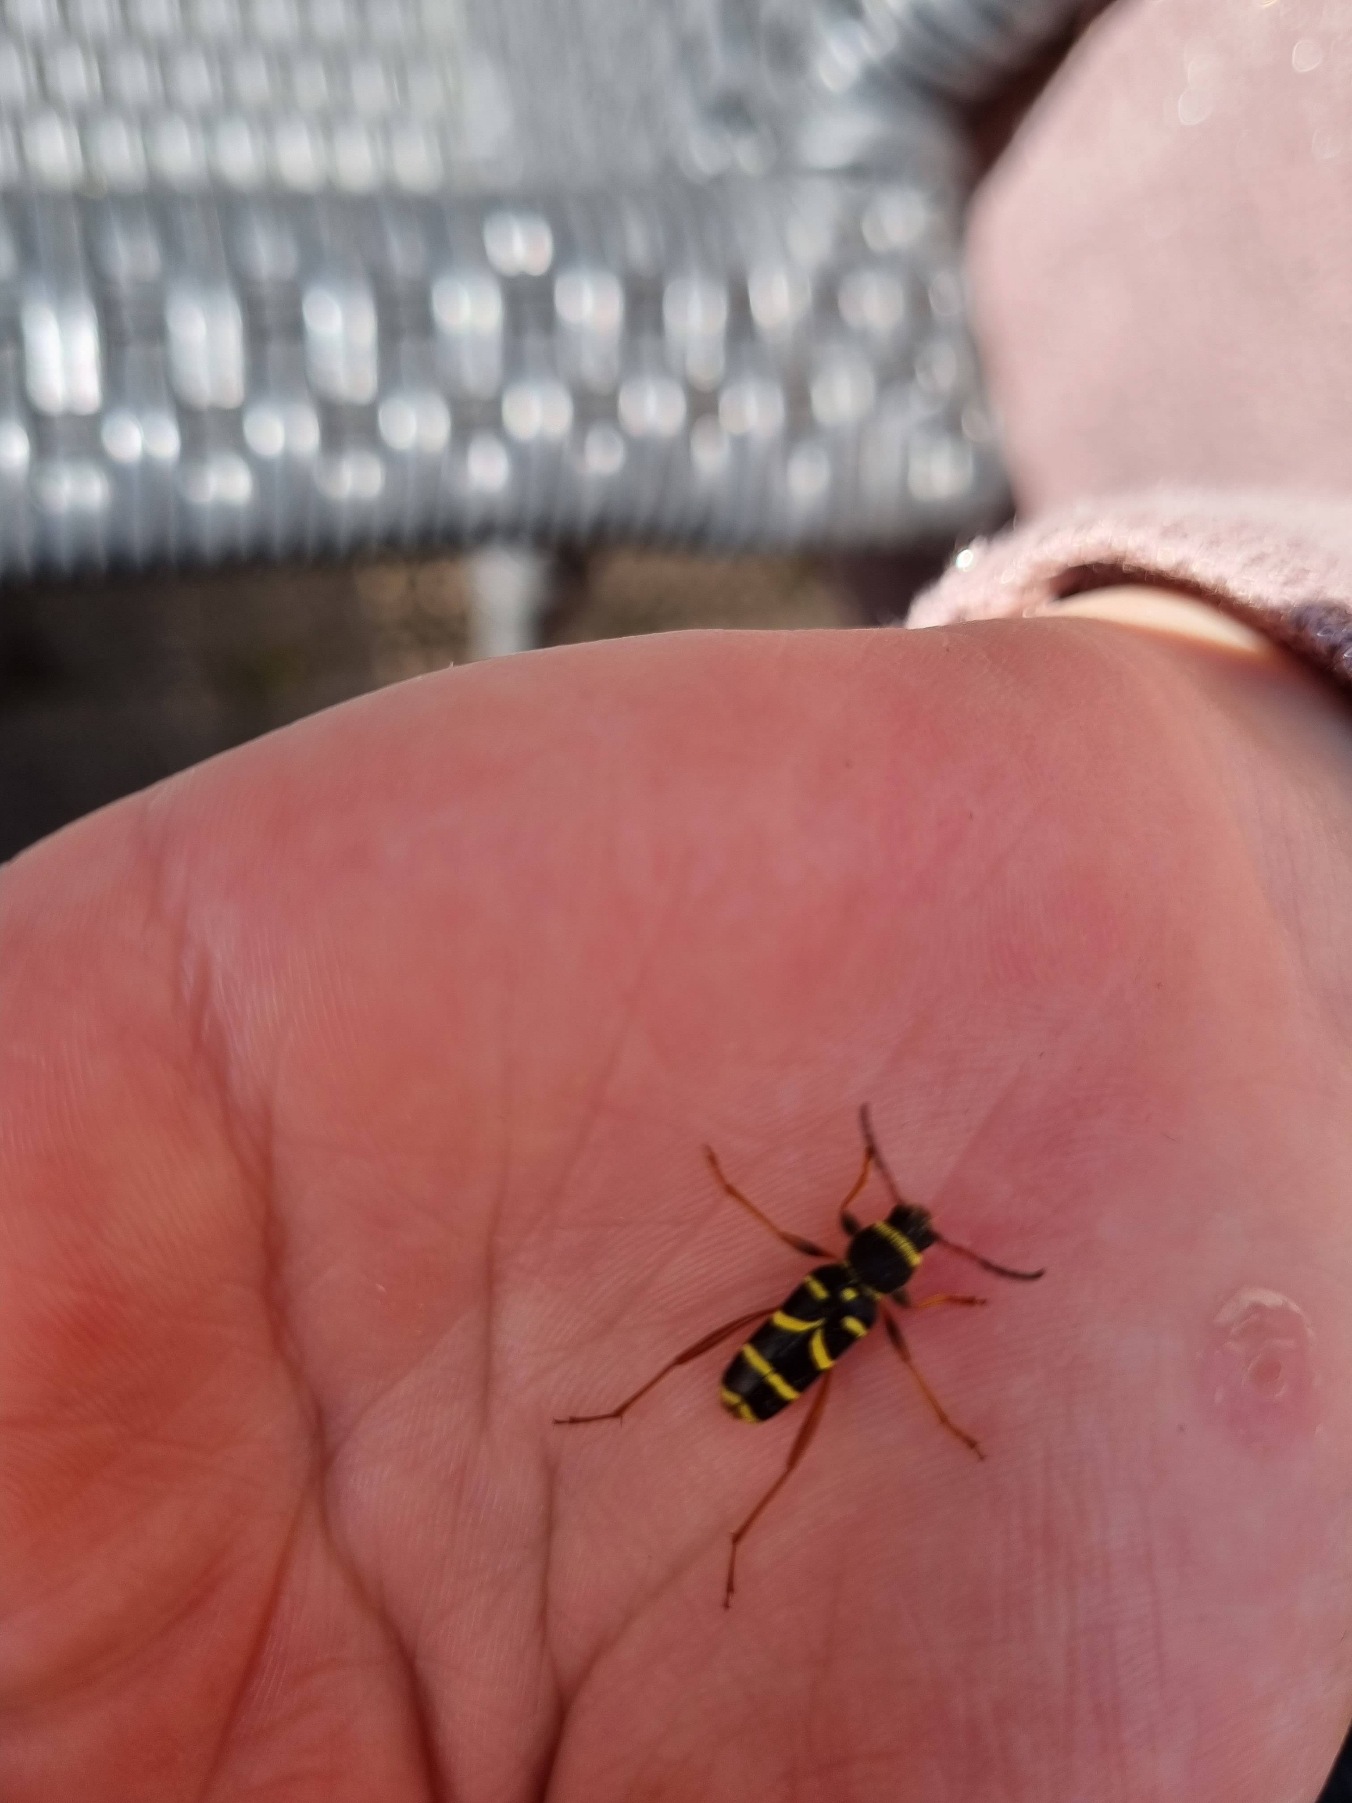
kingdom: Animalia
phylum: Arthropoda
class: Insecta
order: Coleoptera
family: Cerambycidae
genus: Clytus
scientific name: Clytus arietis
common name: Lille hvepsebuk
